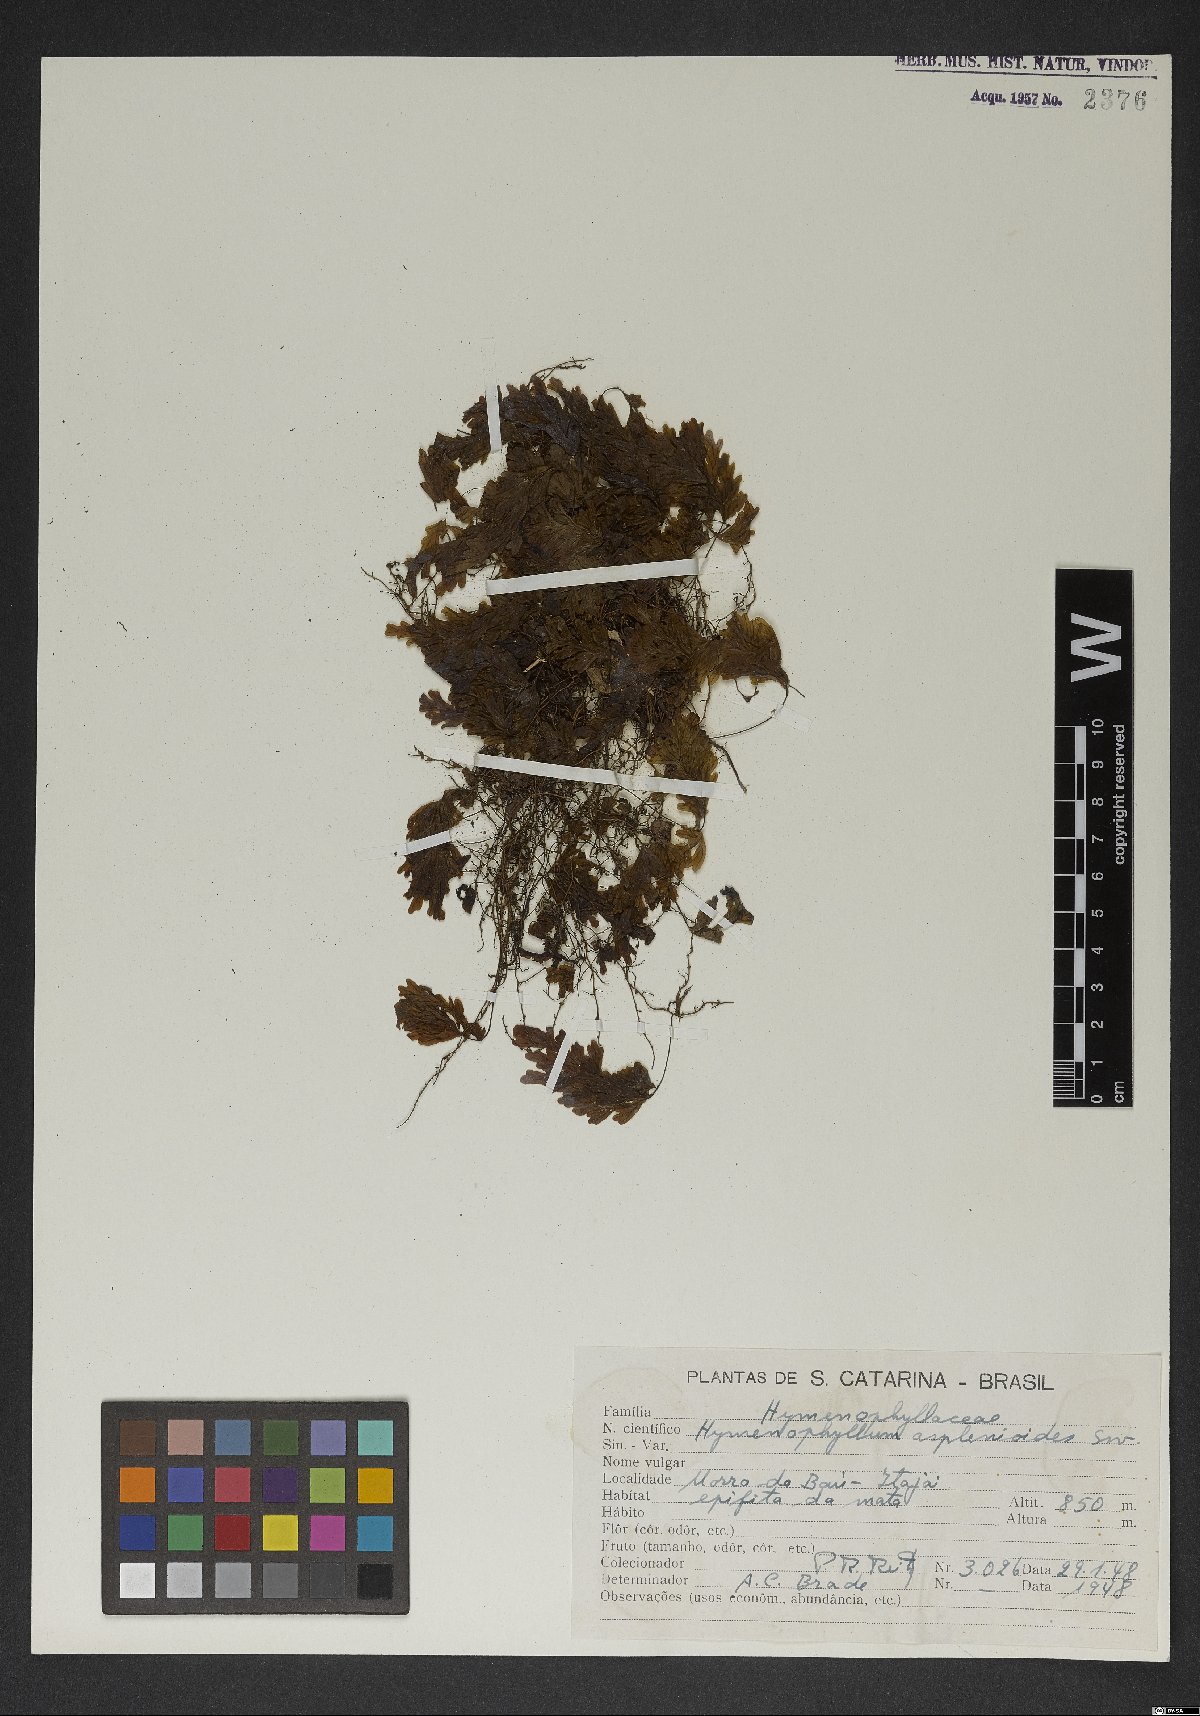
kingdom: Plantae
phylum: Tracheophyta
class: Polypodiopsida
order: Hymenophyllales
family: Hymenophyllaceae
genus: Hymenophyllum
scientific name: Hymenophyllum asplenioides
